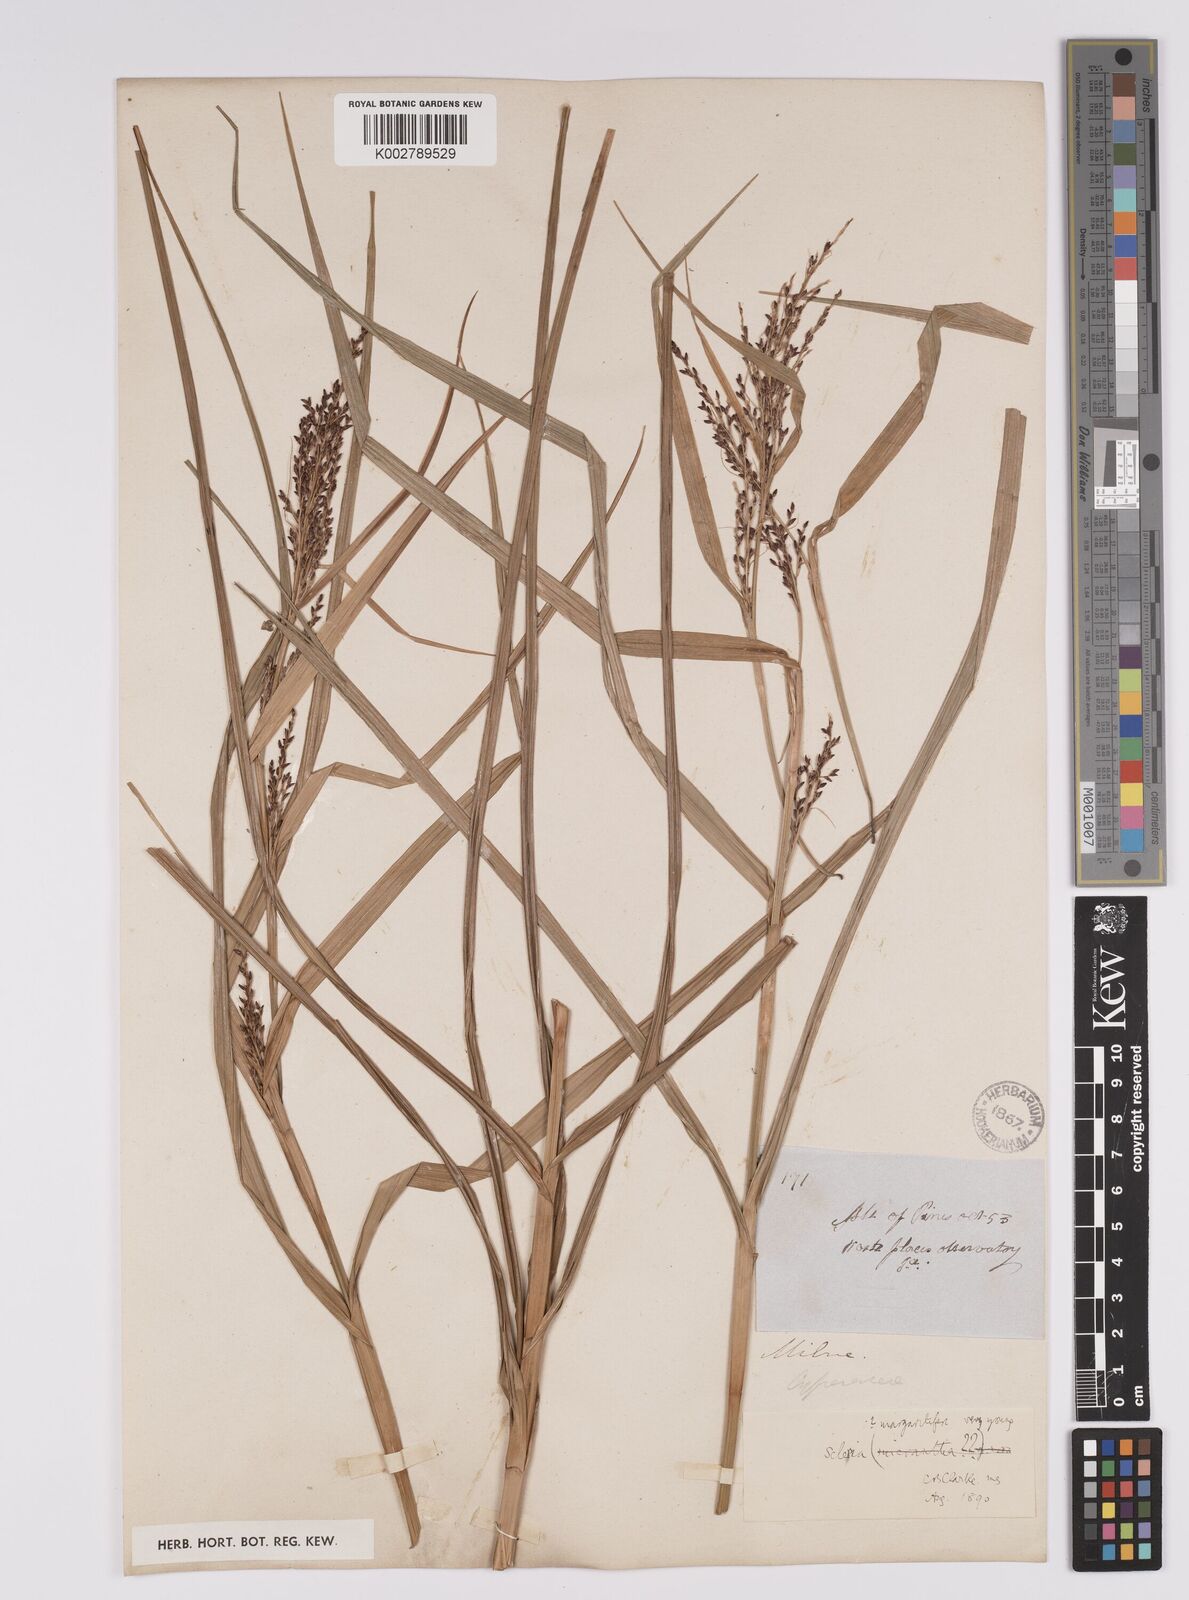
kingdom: Plantae
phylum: Tracheophyta
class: Liliopsida
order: Poales
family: Cyperaceae
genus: Scleria
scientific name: Scleria
